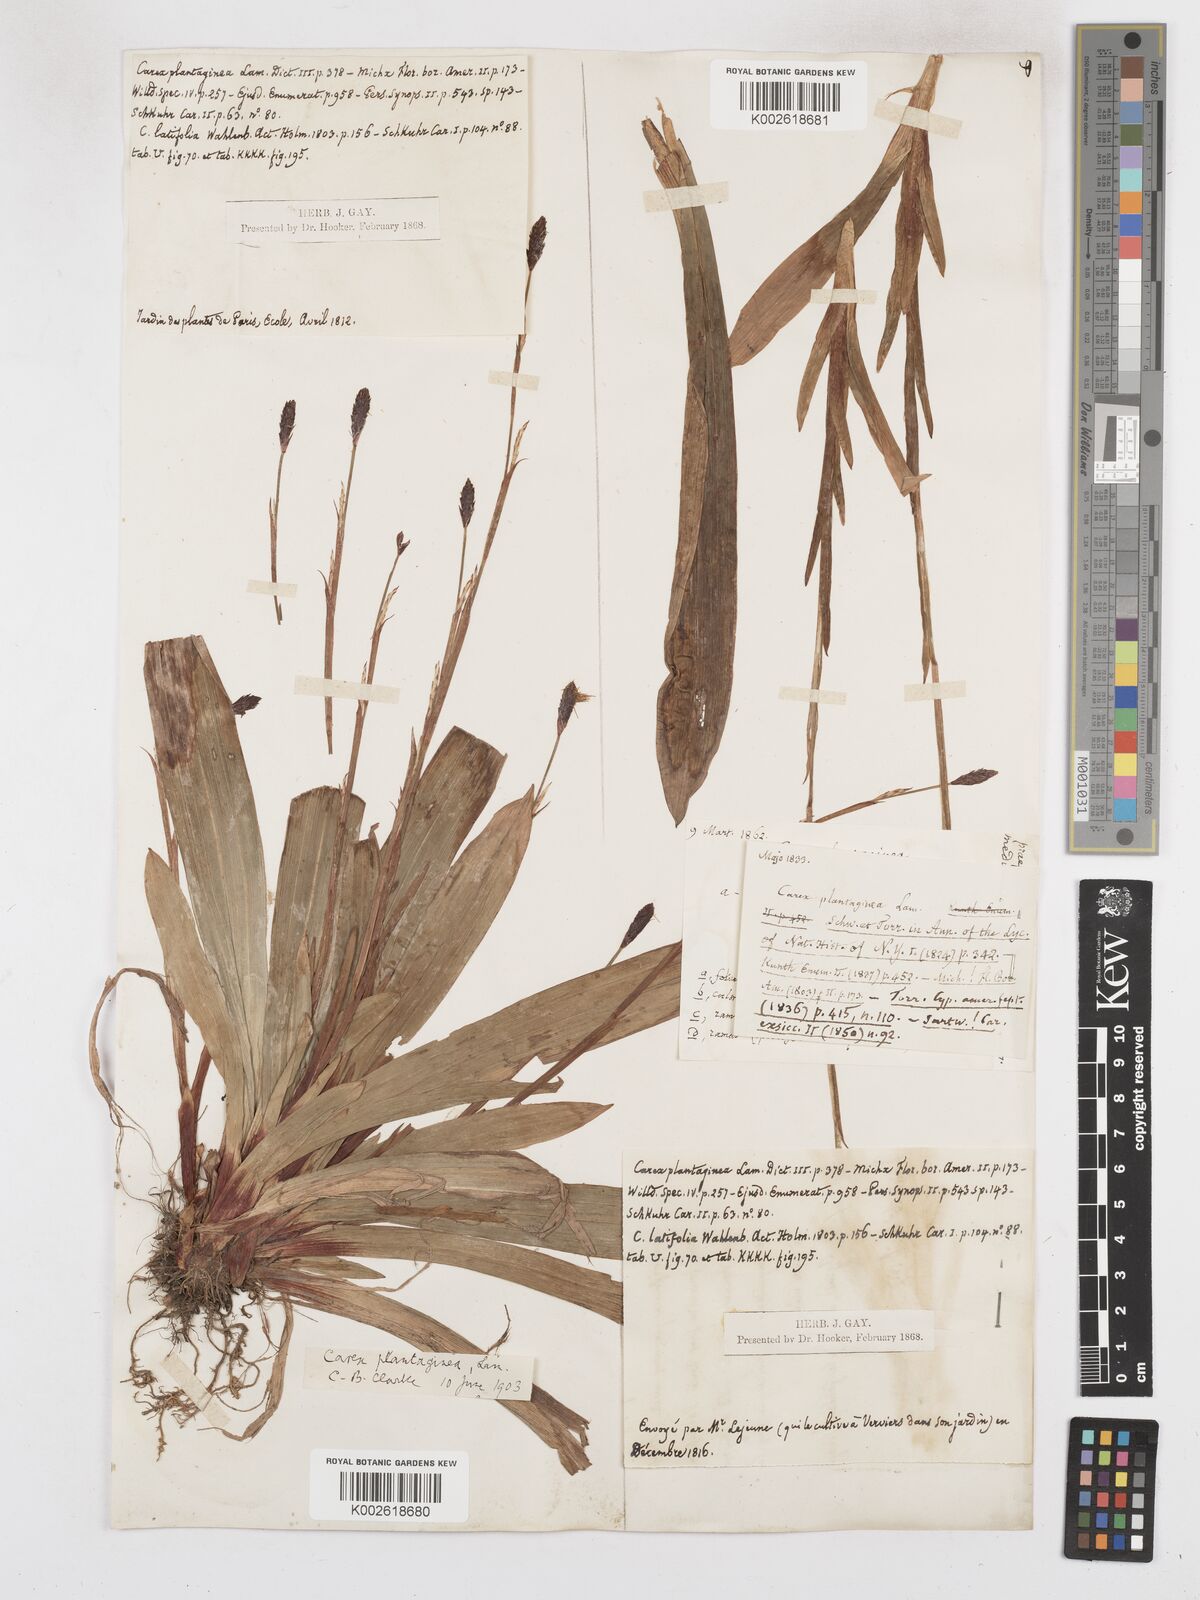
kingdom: Plantae
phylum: Tracheophyta
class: Liliopsida
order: Poales
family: Cyperaceae
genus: Carex
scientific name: Carex plantaginea
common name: Plantain-leaved sedge
